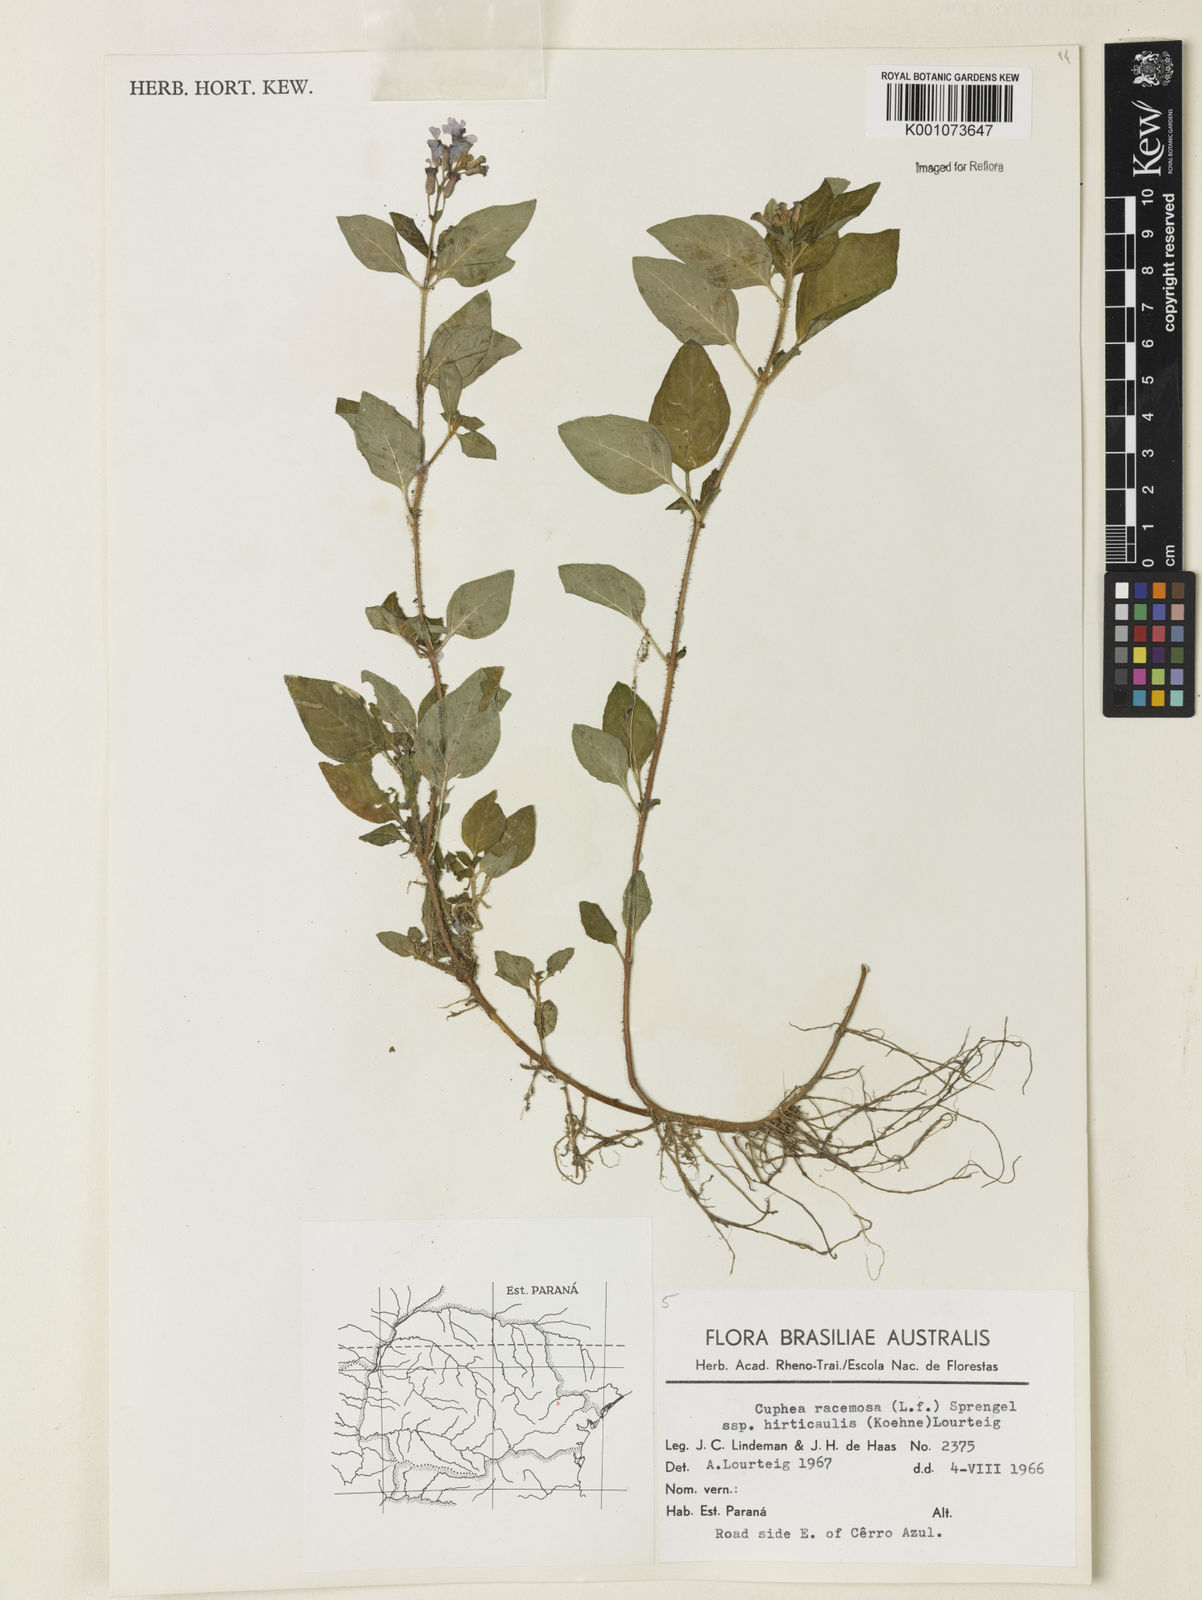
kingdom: Plantae
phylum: Tracheophyta
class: Magnoliopsida
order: Myrtales
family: Lythraceae
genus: Cuphea
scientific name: Cuphea racemosa
